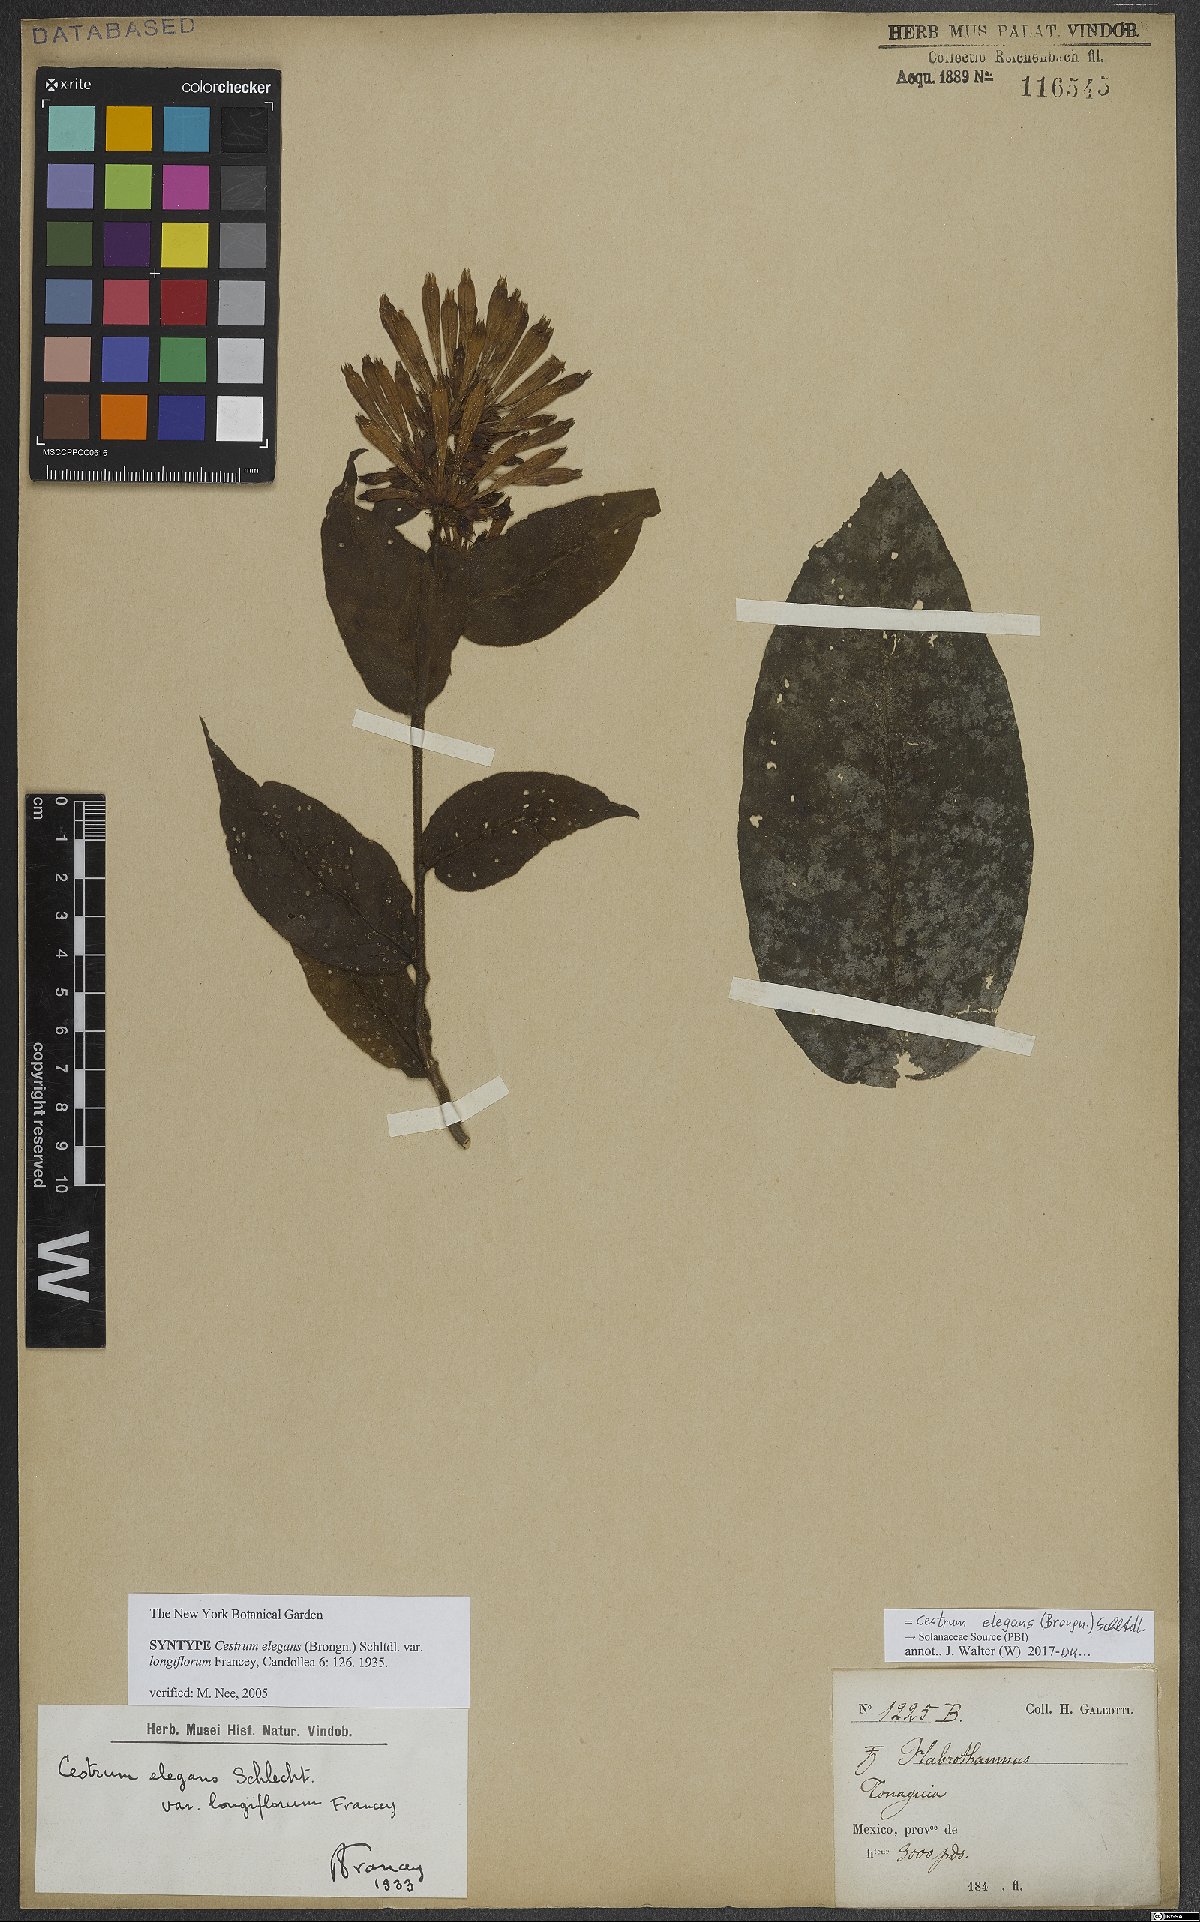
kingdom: Plantae
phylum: Tracheophyta
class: Magnoliopsida
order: Solanales
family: Solanaceae
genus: Cestrum
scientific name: Cestrum elegans
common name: Crimson cestrum
